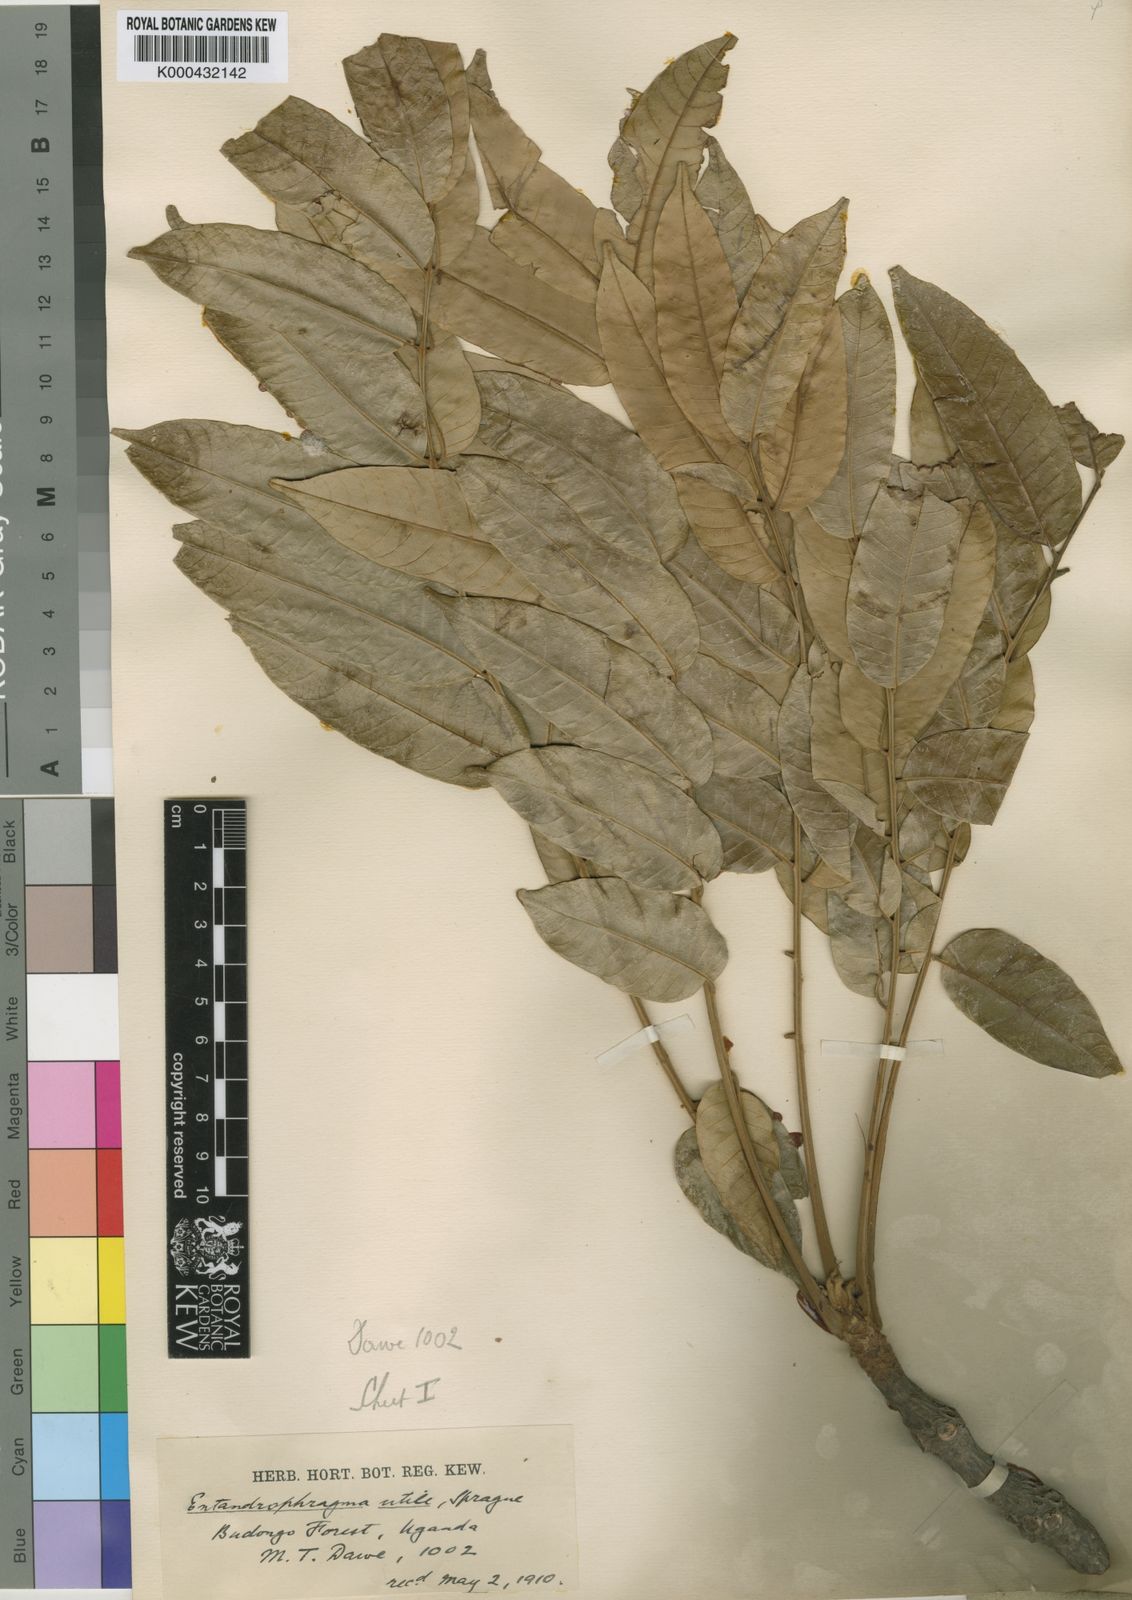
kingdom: Plantae
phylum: Tracheophyta
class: Magnoliopsida
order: Sapindales
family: Meliaceae
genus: Entandrophragma
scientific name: Entandrophragma utile
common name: Utile
